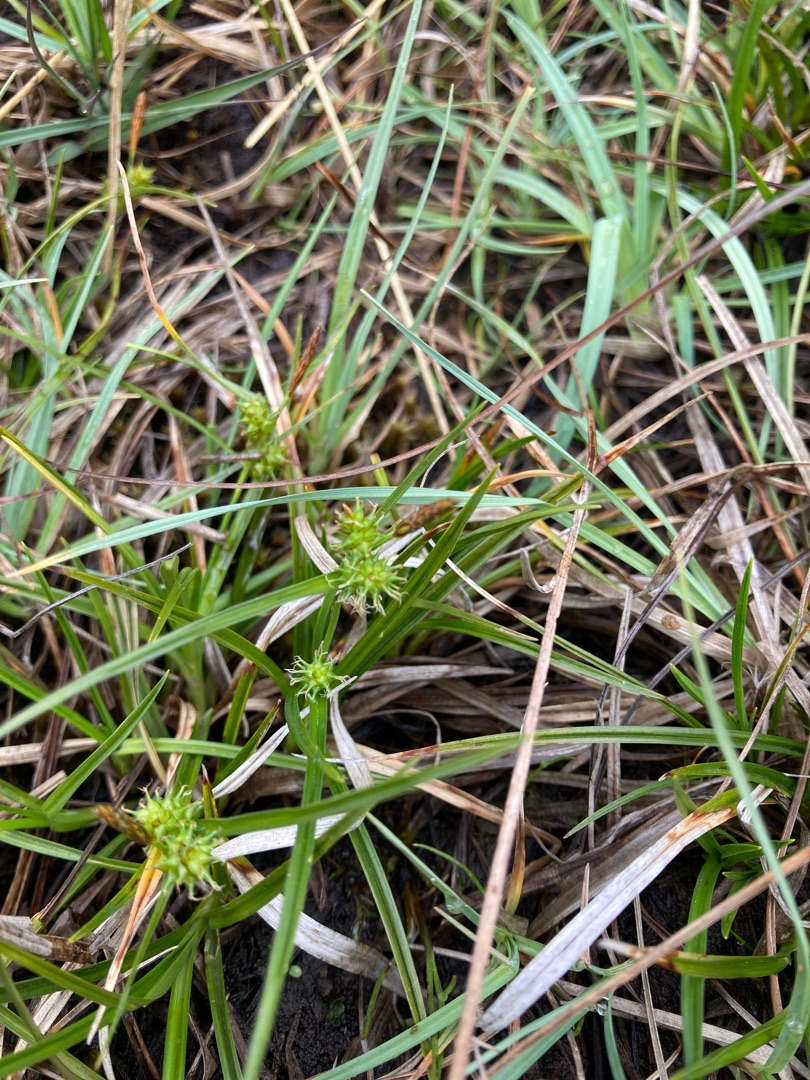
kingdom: Plantae
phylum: Tracheophyta
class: Liliopsida
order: Poales
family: Cyperaceae
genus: Carex
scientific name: Carex demissa
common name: Grøn star
